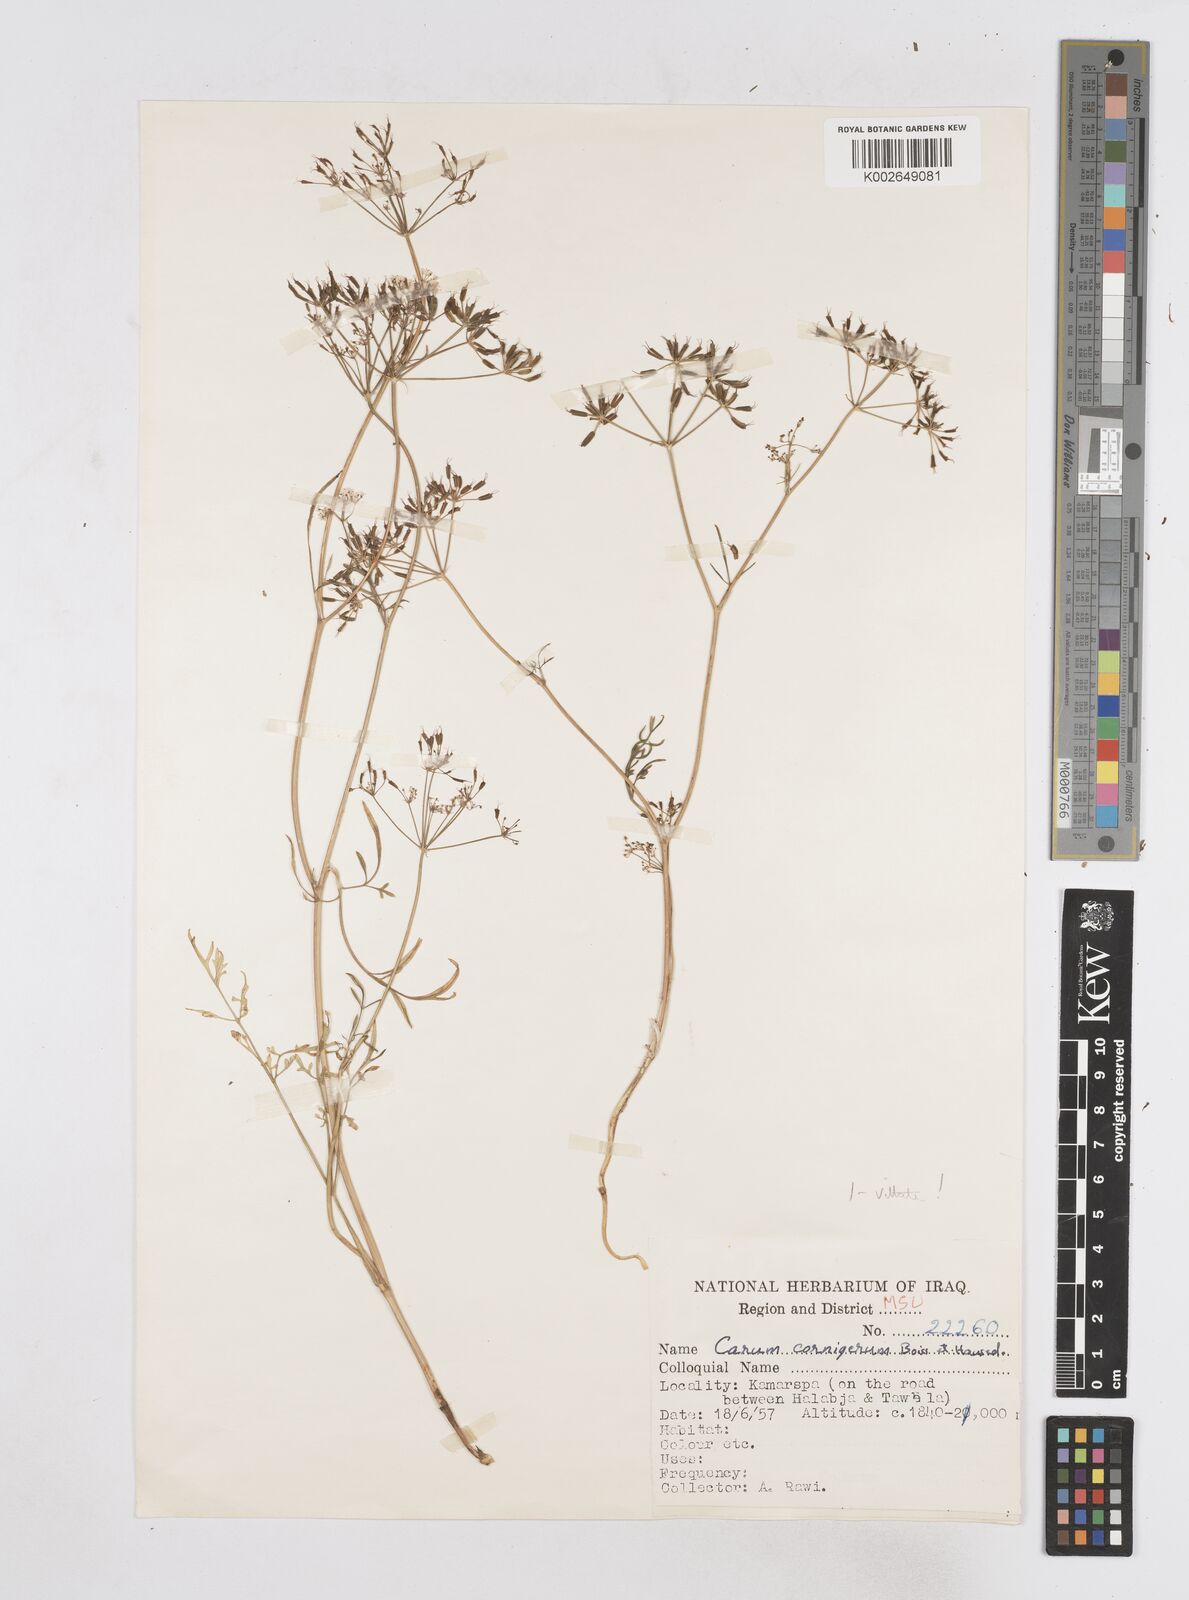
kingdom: Plantae
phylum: Tracheophyta
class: Magnoliopsida
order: Apiales
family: Apiaceae
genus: Bunium
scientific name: Bunium cornigerum
